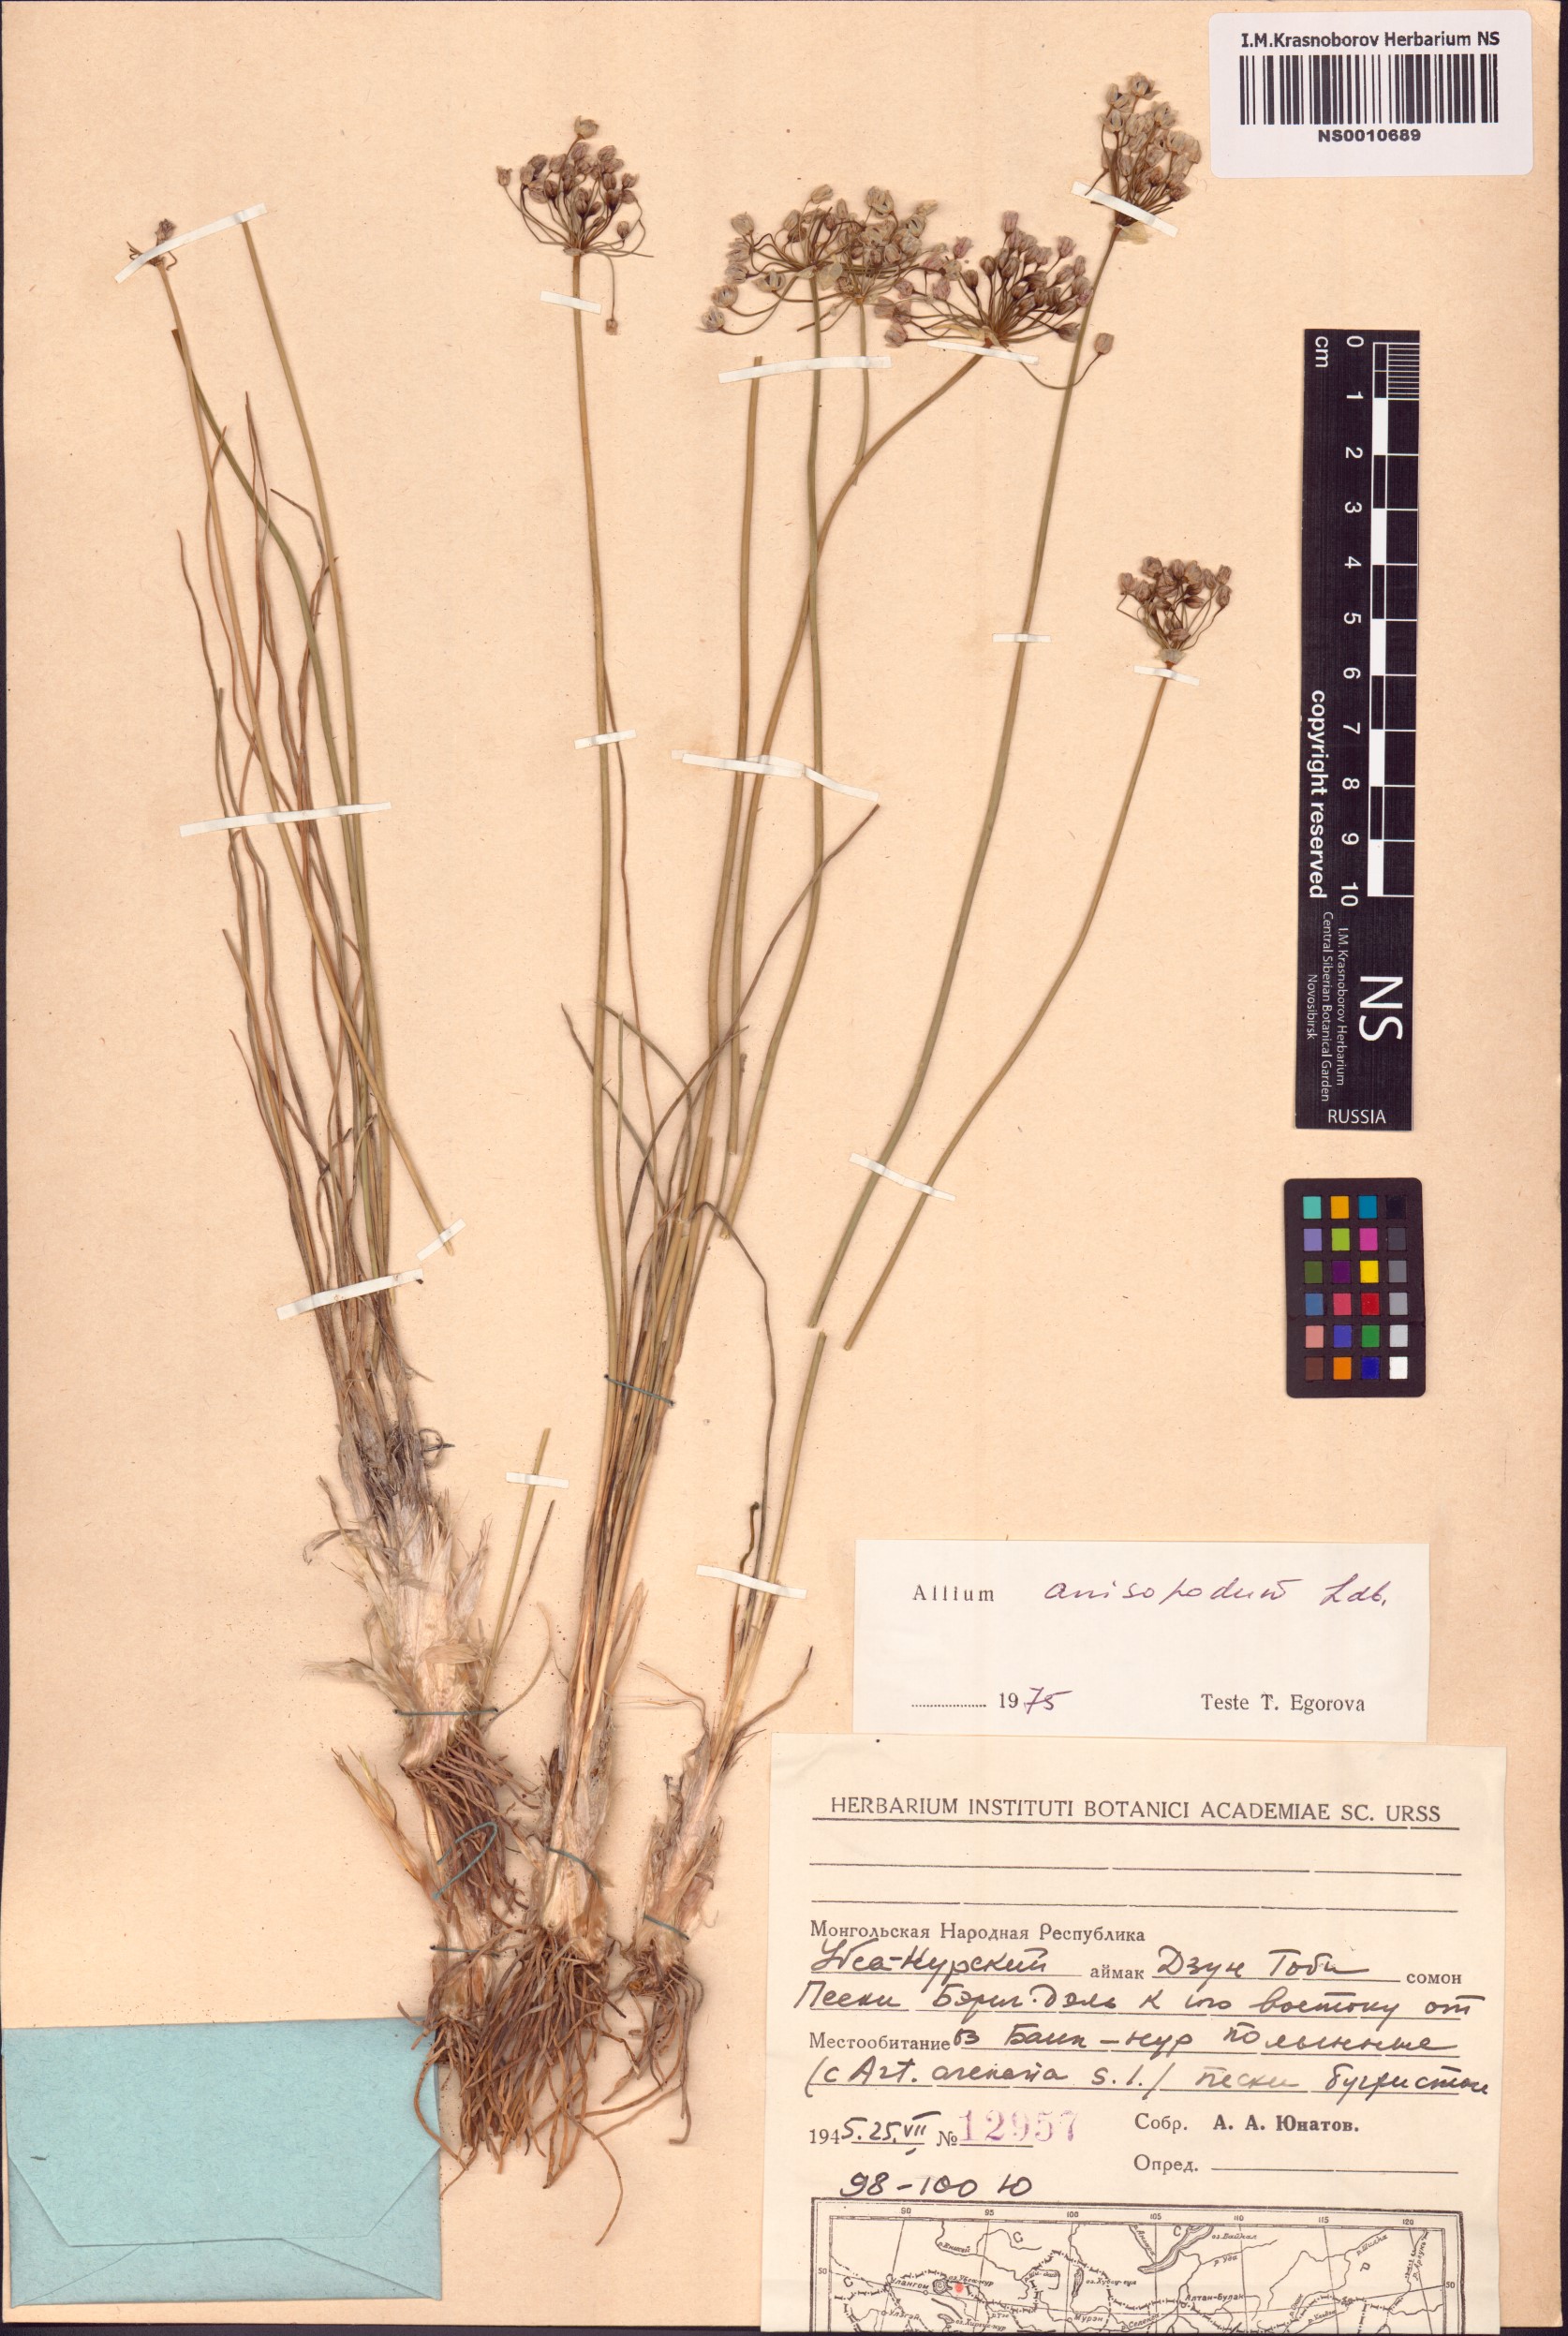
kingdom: Plantae
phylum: Tracheophyta
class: Liliopsida
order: Asparagales
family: Amaryllidaceae
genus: Allium
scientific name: Allium anisopodium
